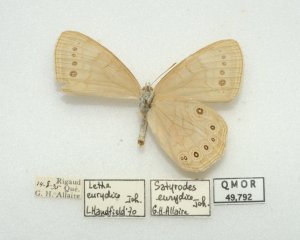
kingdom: Animalia
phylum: Arthropoda
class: Insecta
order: Lepidoptera
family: Nymphalidae
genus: Lethe
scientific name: Lethe eurydice
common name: Eyed Brown
